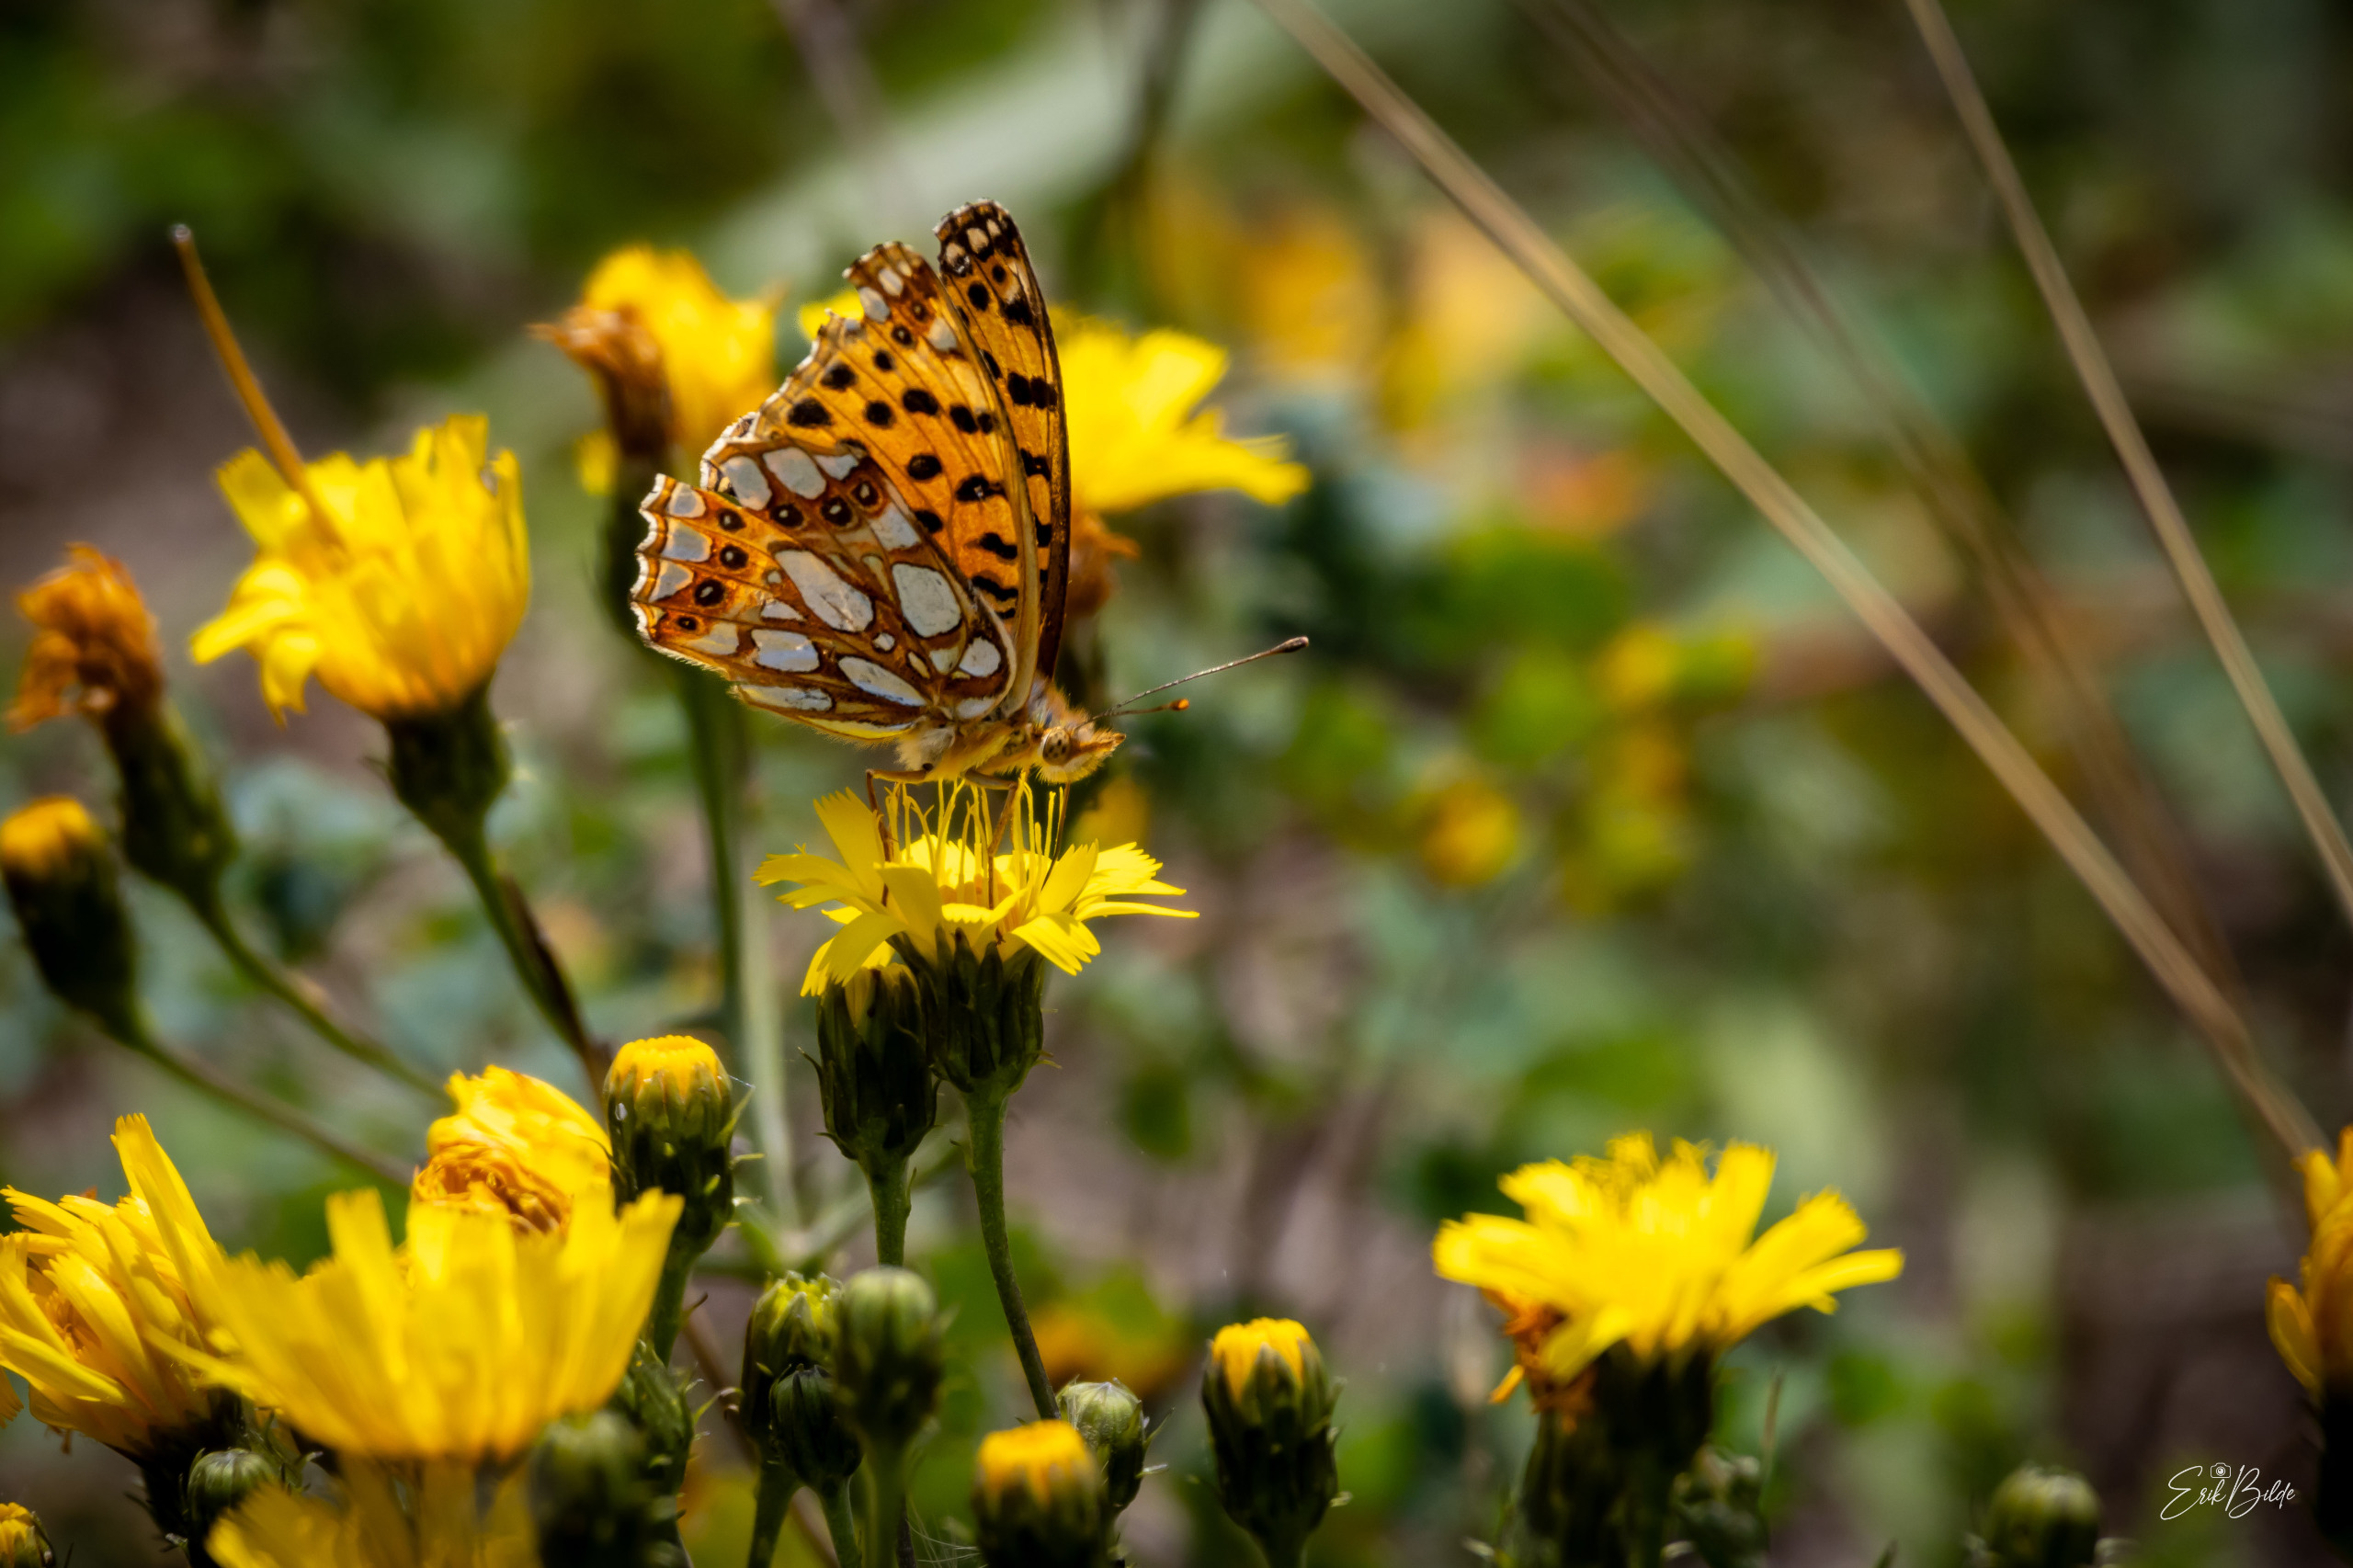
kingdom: Animalia
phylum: Arthropoda
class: Insecta
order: Lepidoptera
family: Nymphalidae
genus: Issoria
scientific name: Issoria lathonia
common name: Storplettet perlemorsommerfugl
